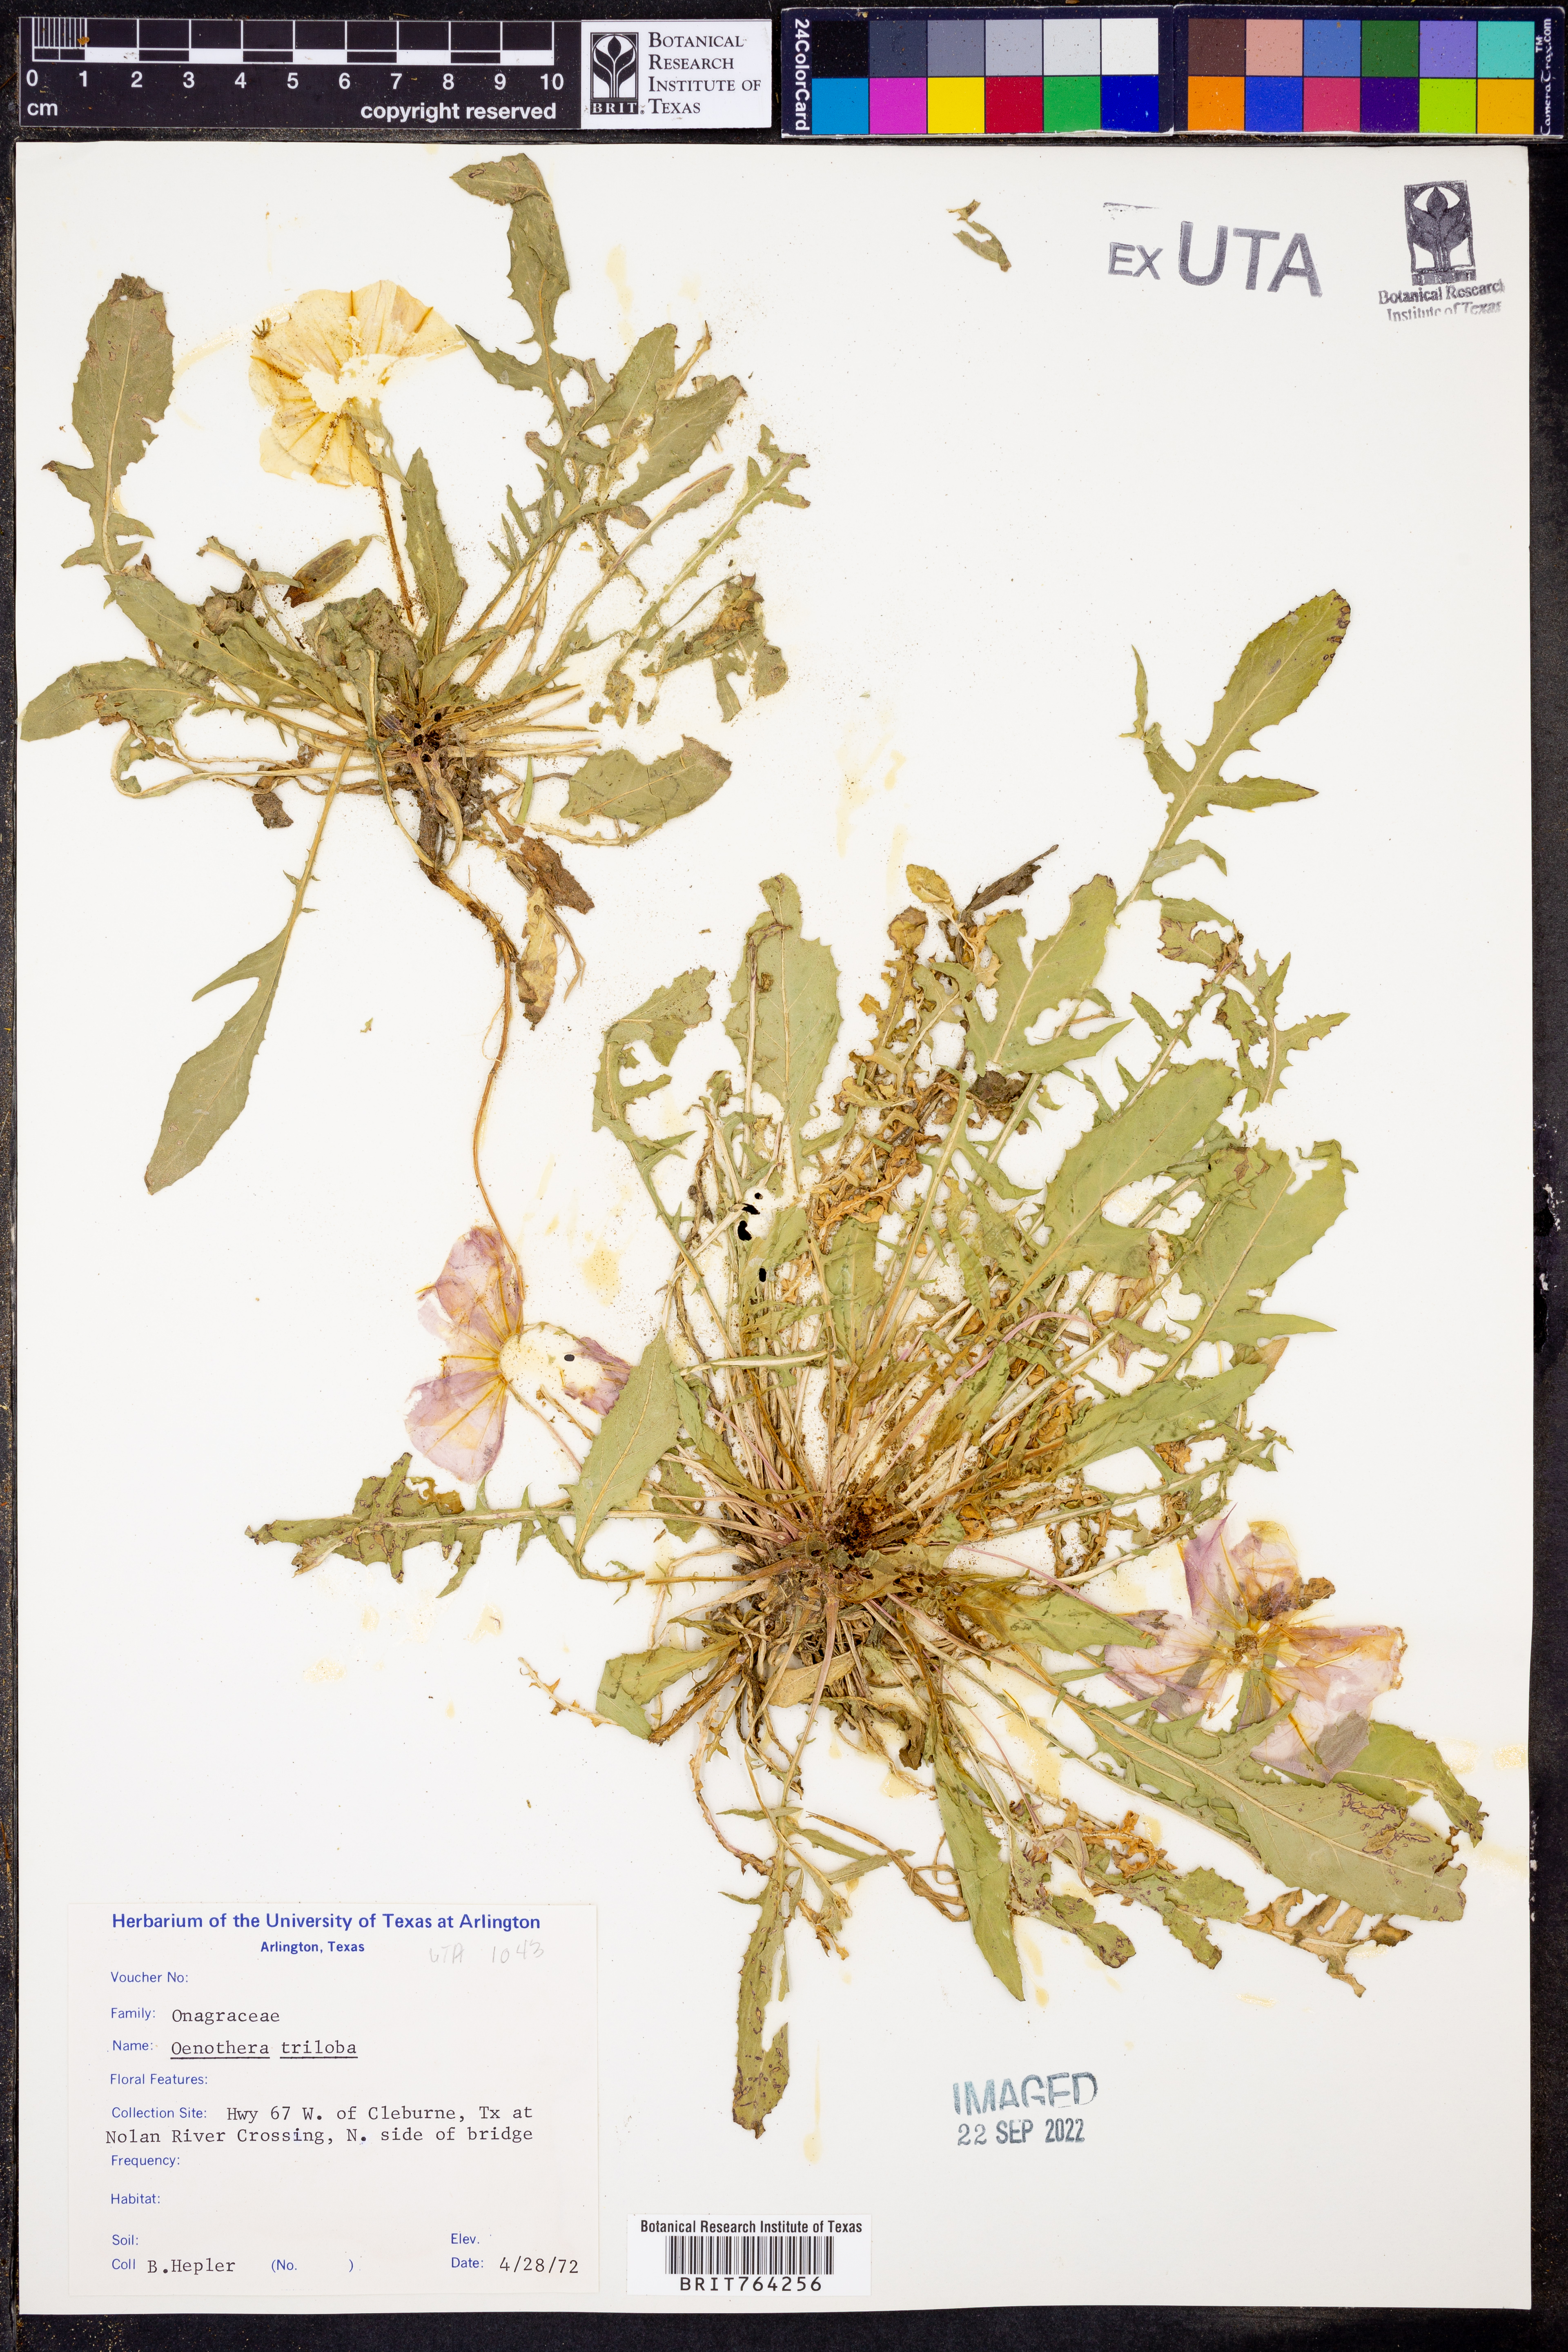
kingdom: Plantae
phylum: Tracheophyta
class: Magnoliopsida
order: Myrtales
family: Onagraceae
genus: Oenothera
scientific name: Oenothera triloba
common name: Sessile evening-primrose
